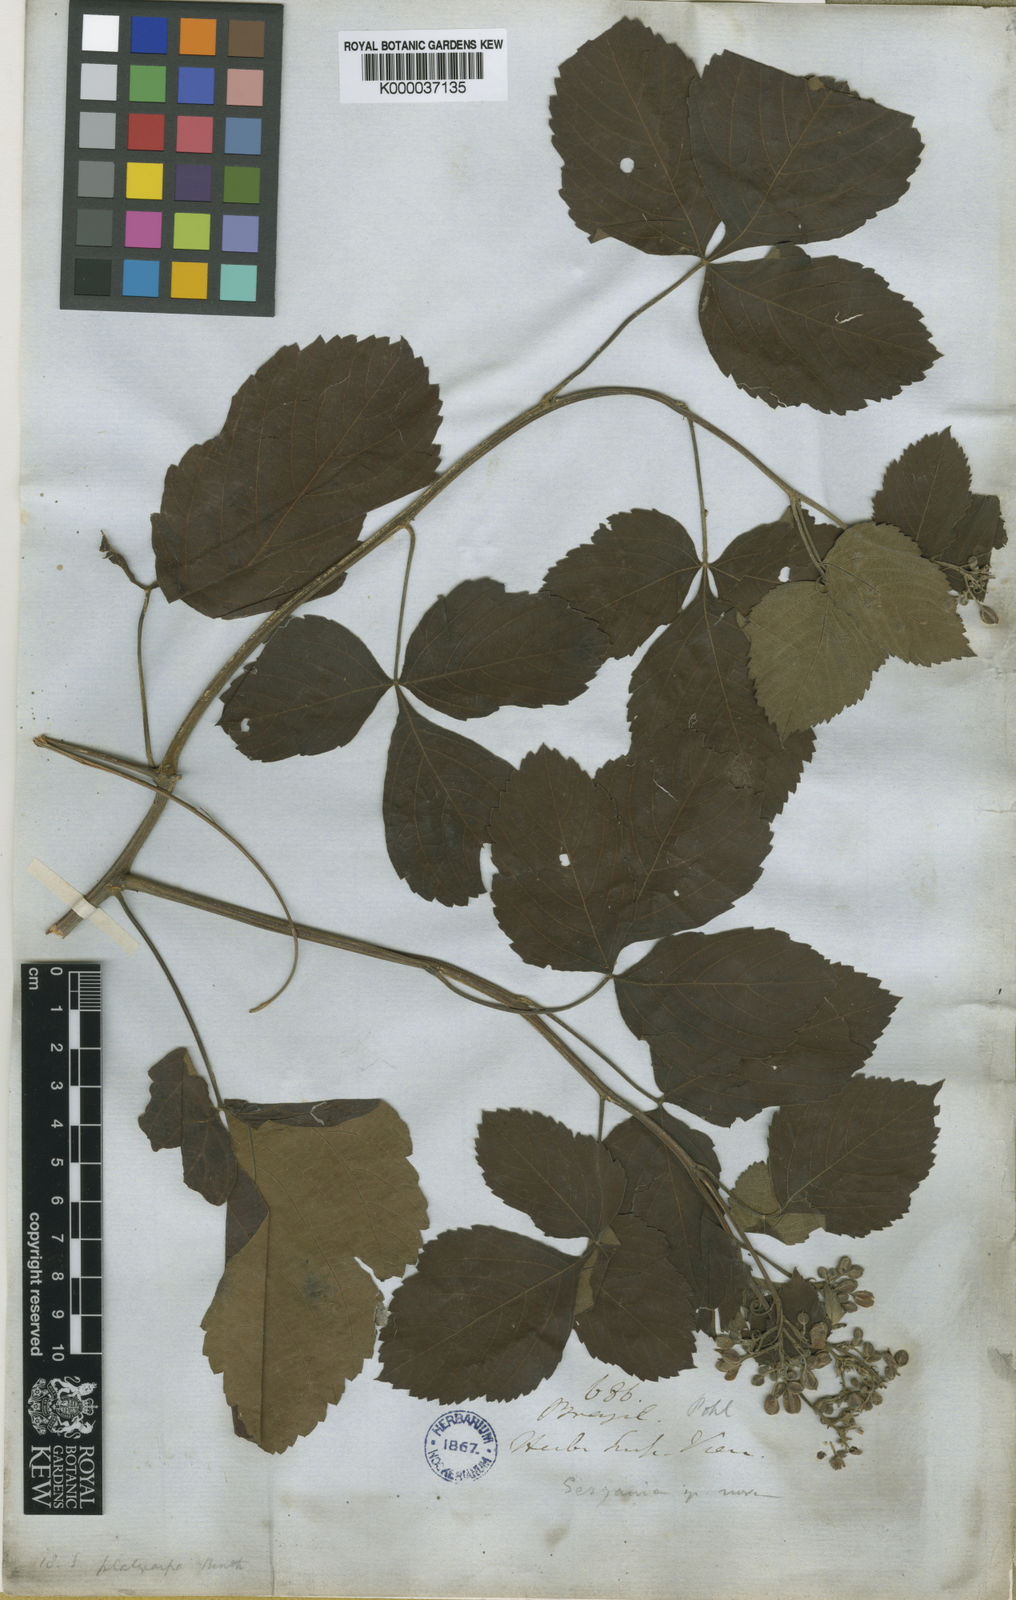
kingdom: Plantae
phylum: Tracheophyta
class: Magnoliopsida
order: Sapindales
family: Sapindaceae
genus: Serjania
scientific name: Serjania platycarpa
